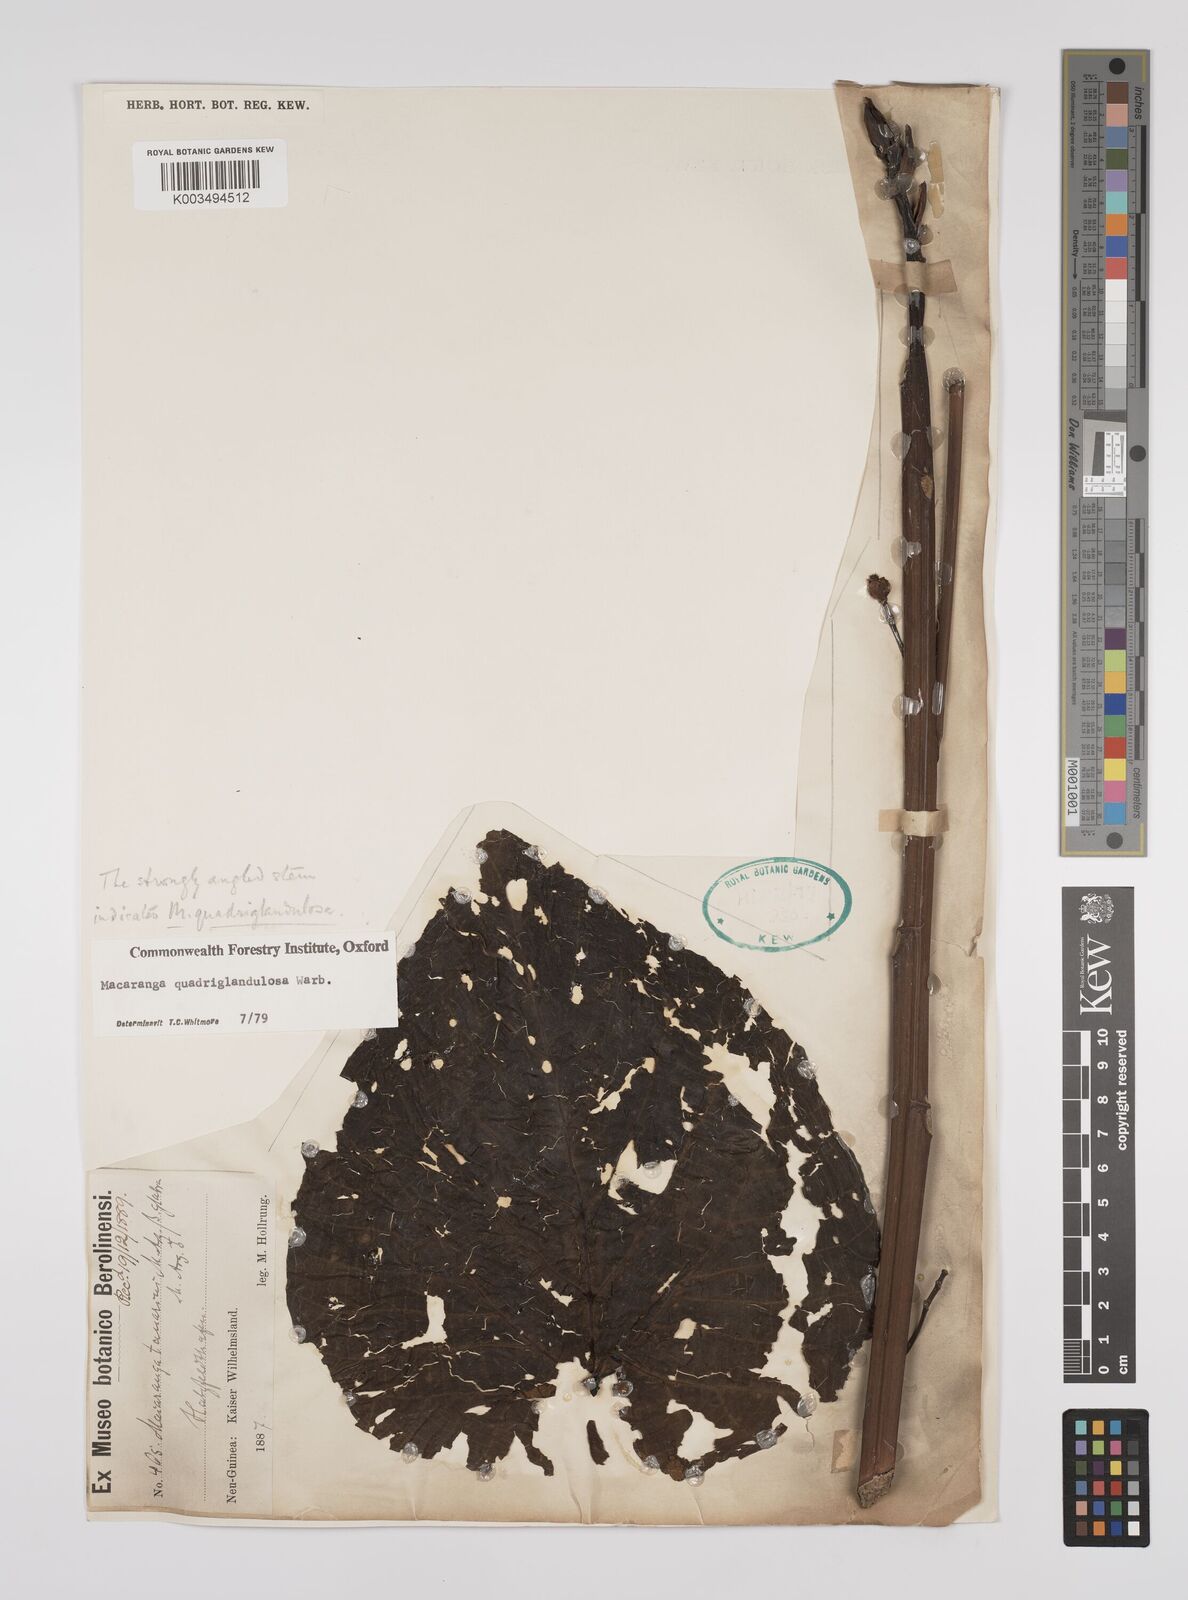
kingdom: Plantae
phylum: Tracheophyta
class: Magnoliopsida
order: Malpighiales
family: Euphorbiaceae
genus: Macaranga
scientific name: Macaranga quadriglandulosa
